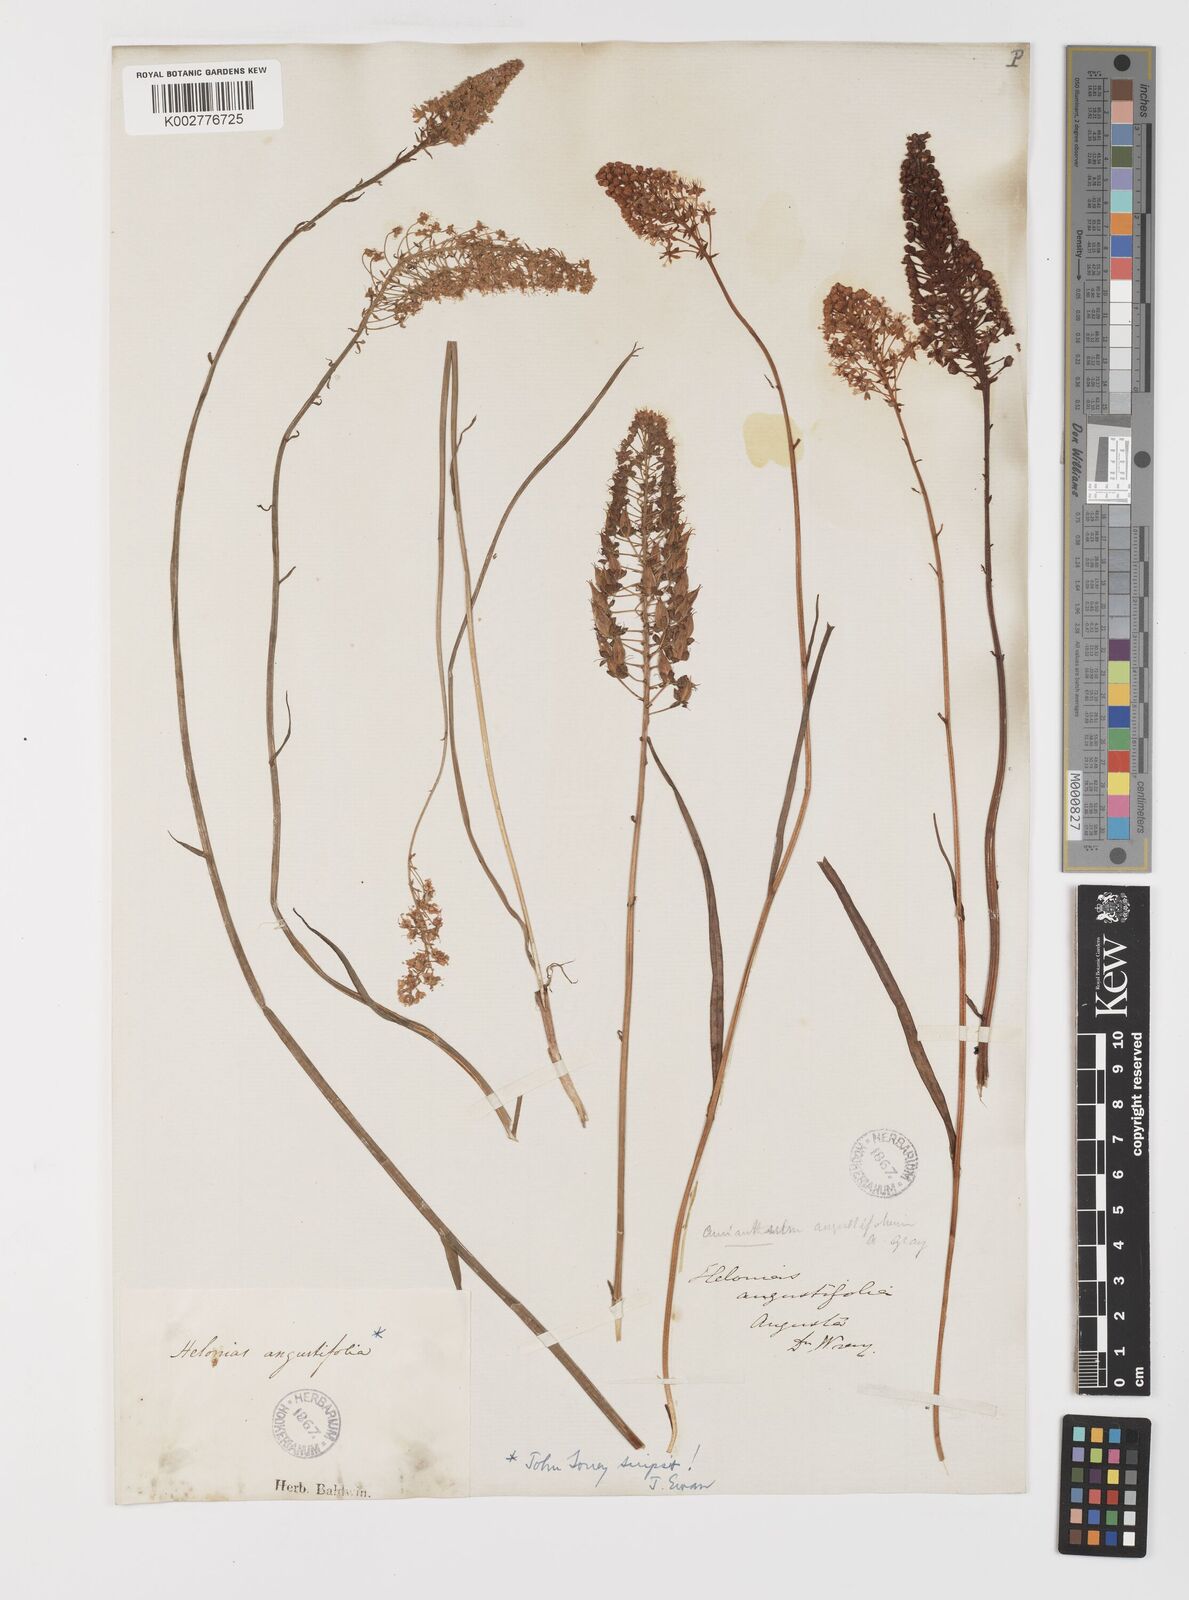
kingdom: Plantae
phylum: Tracheophyta
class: Liliopsida
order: Liliales
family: Melanthiaceae
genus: Stenanthium
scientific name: Stenanthium densum
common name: Crow-poison
